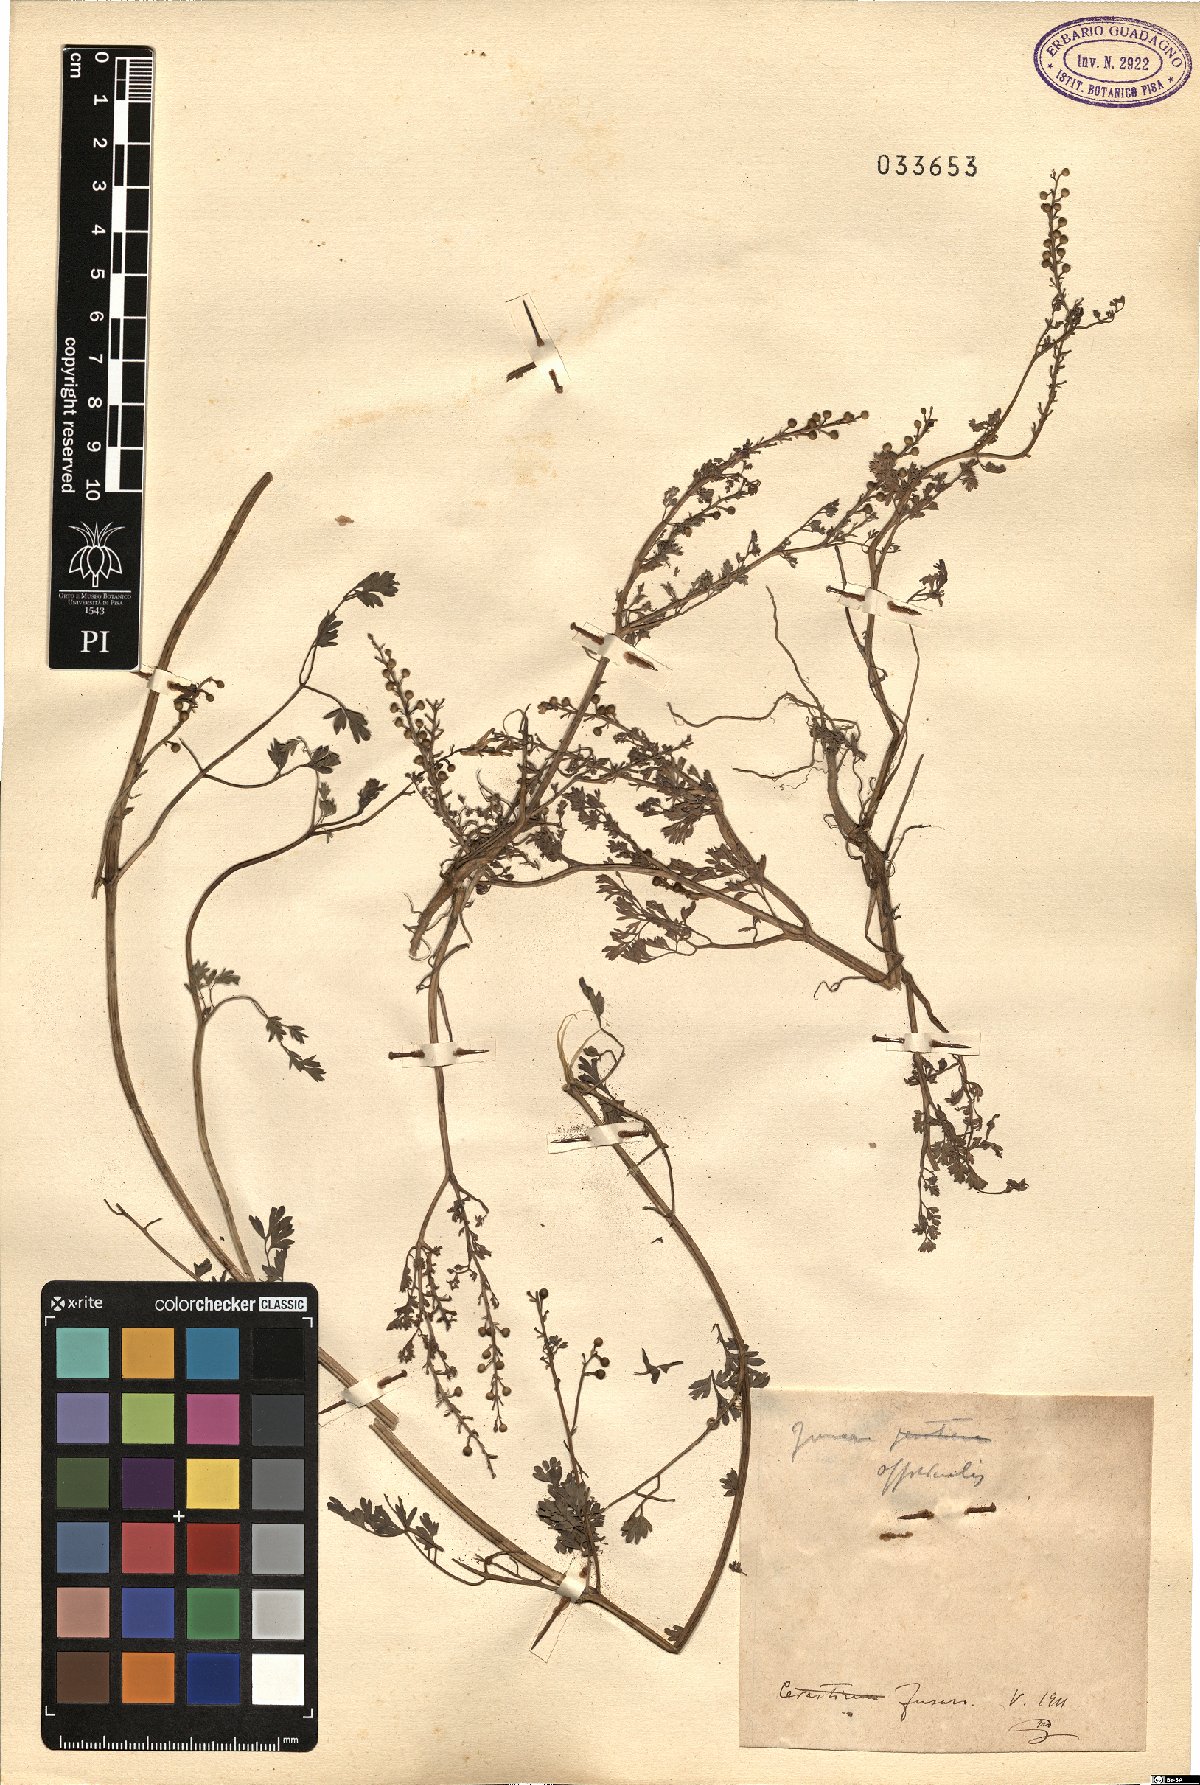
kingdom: Plantae
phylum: Tracheophyta
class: Magnoliopsida
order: Ranunculales
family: Papaveraceae
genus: Fumaria
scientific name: Fumaria officinalis
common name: Common fumitory
